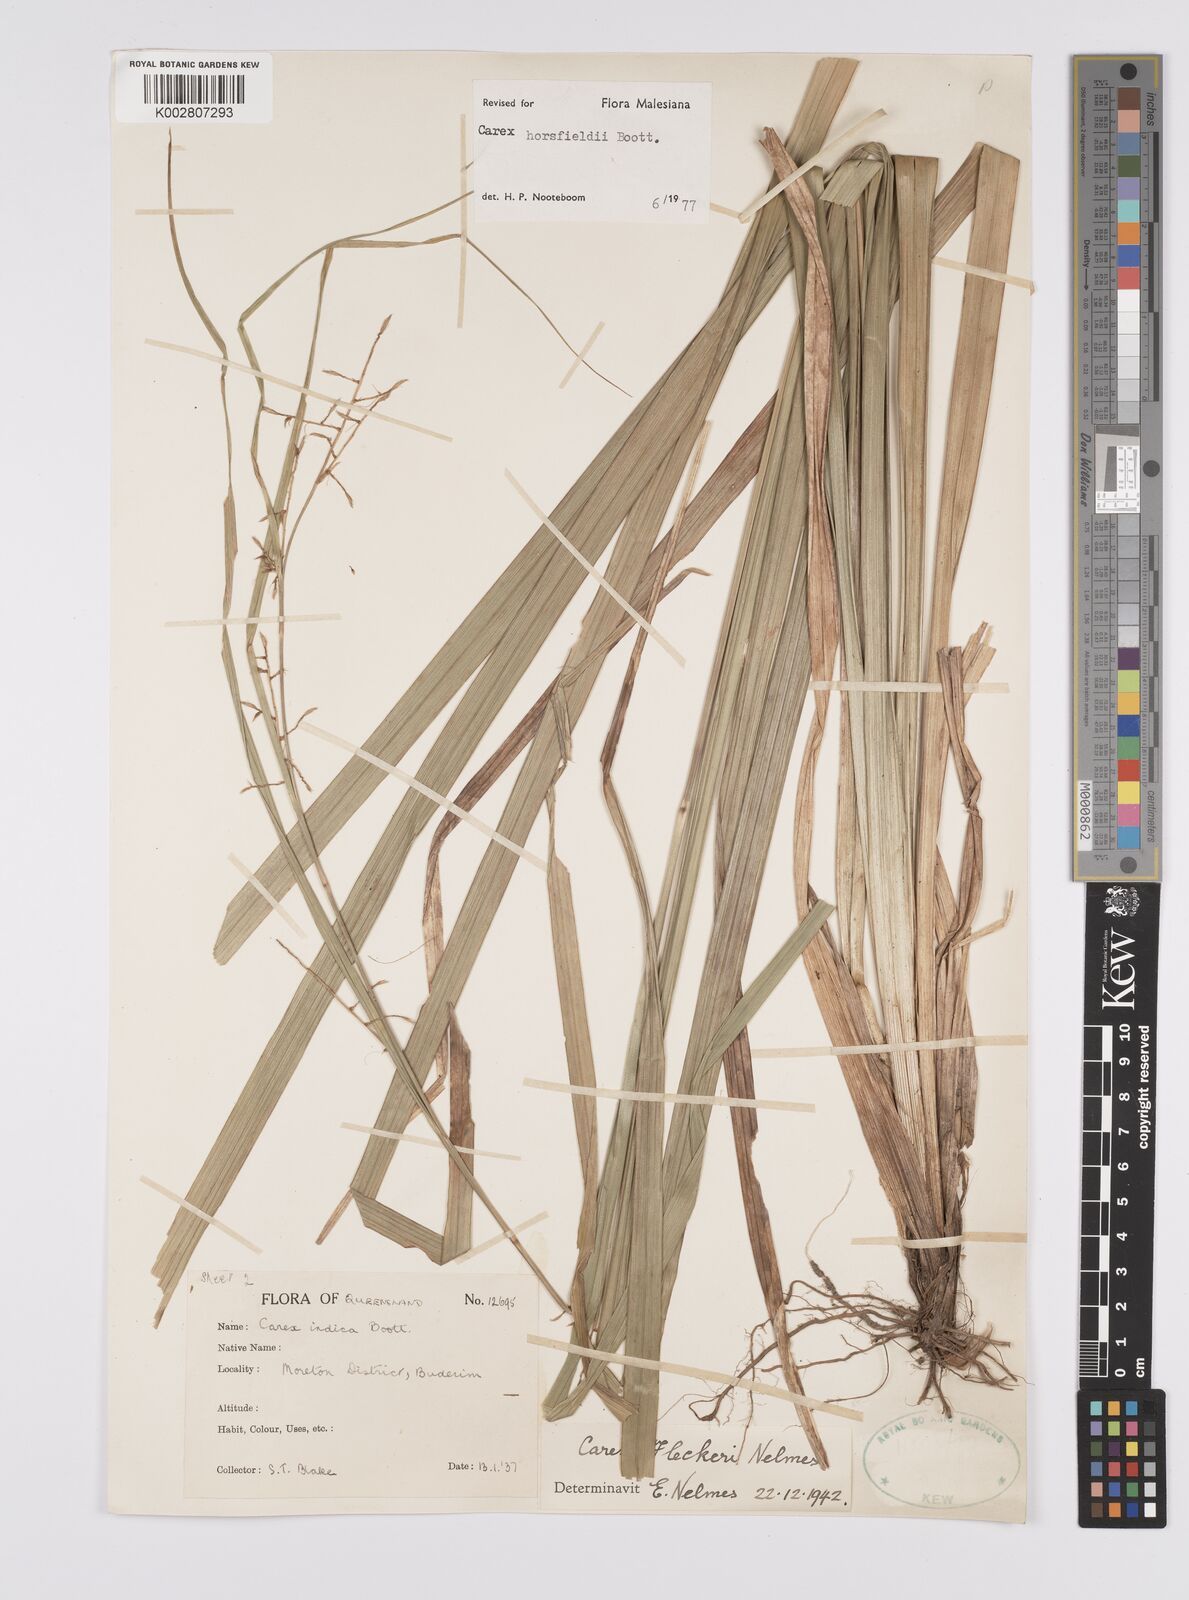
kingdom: Plantae
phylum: Tracheophyta
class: Liliopsida
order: Poales
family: Cyperaceae
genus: Carex
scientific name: Carex horsfieldii
